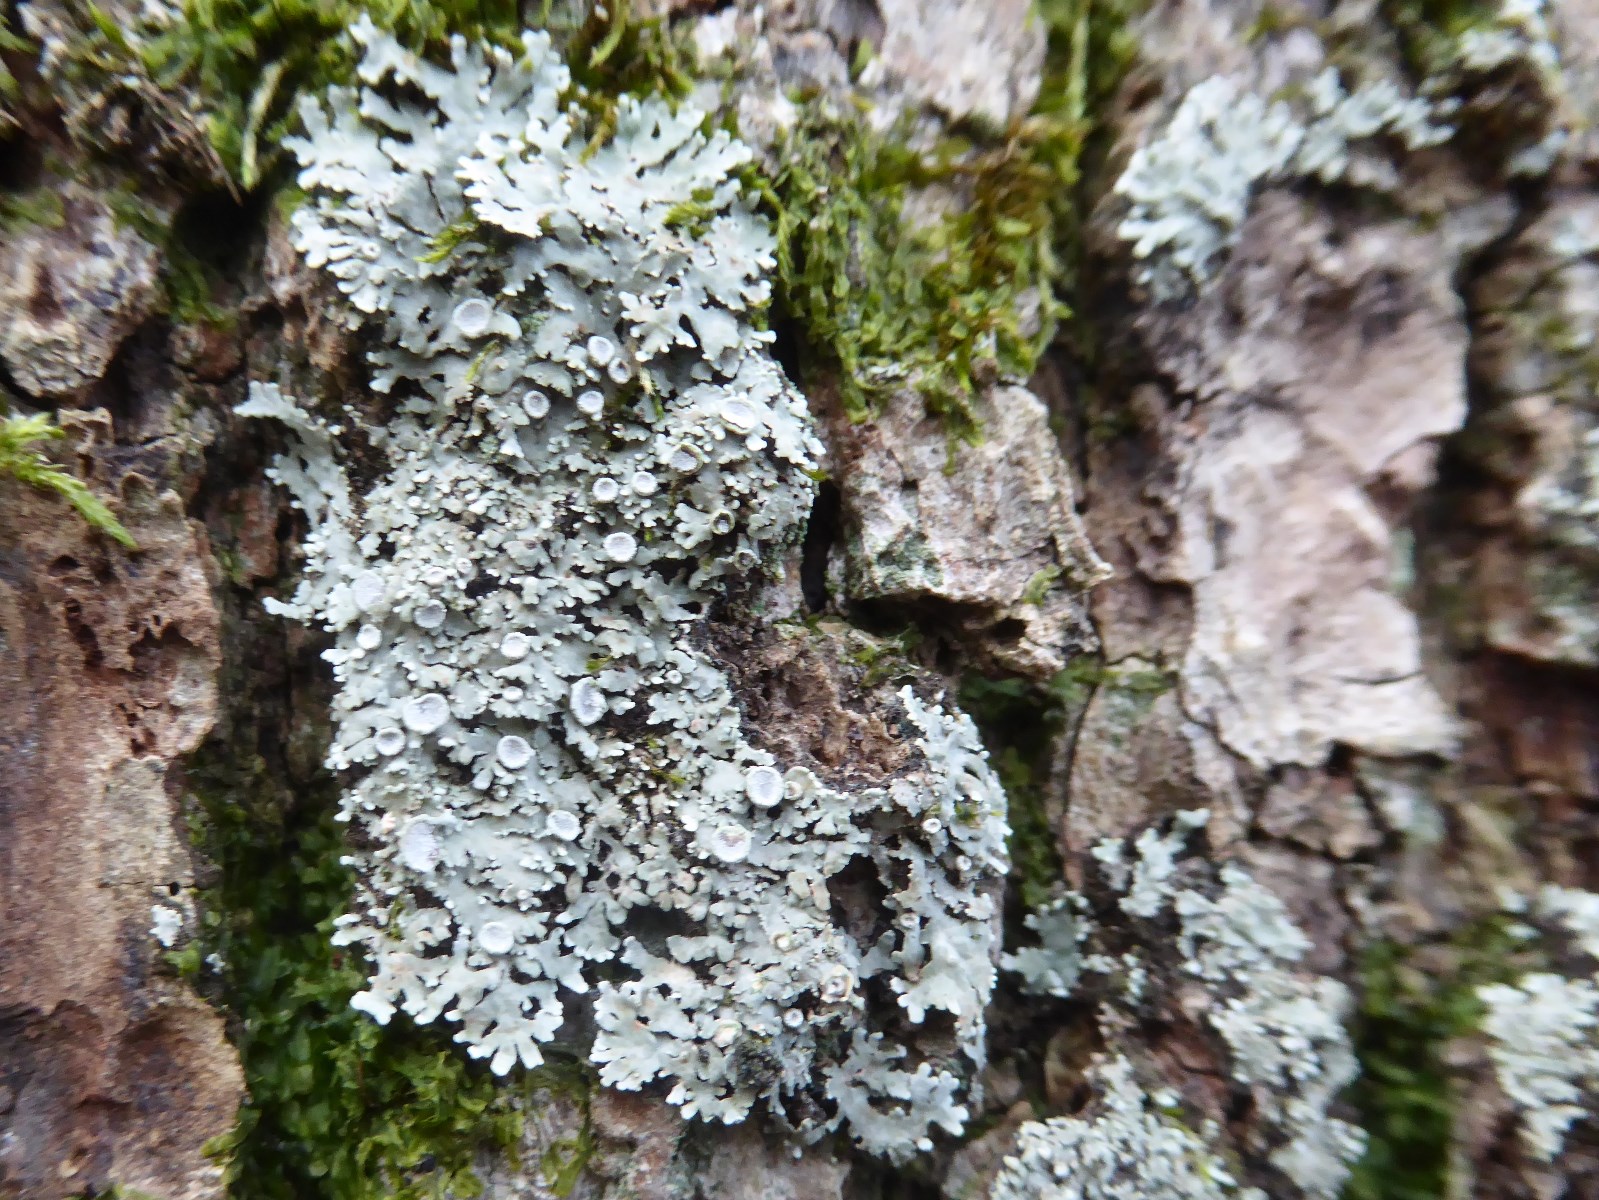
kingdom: Fungi
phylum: Ascomycota
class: Lecanoromycetes
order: Caliciales
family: Physciaceae
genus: Physconia
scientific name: Physconia distorta
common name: pudret dugrosetlav
